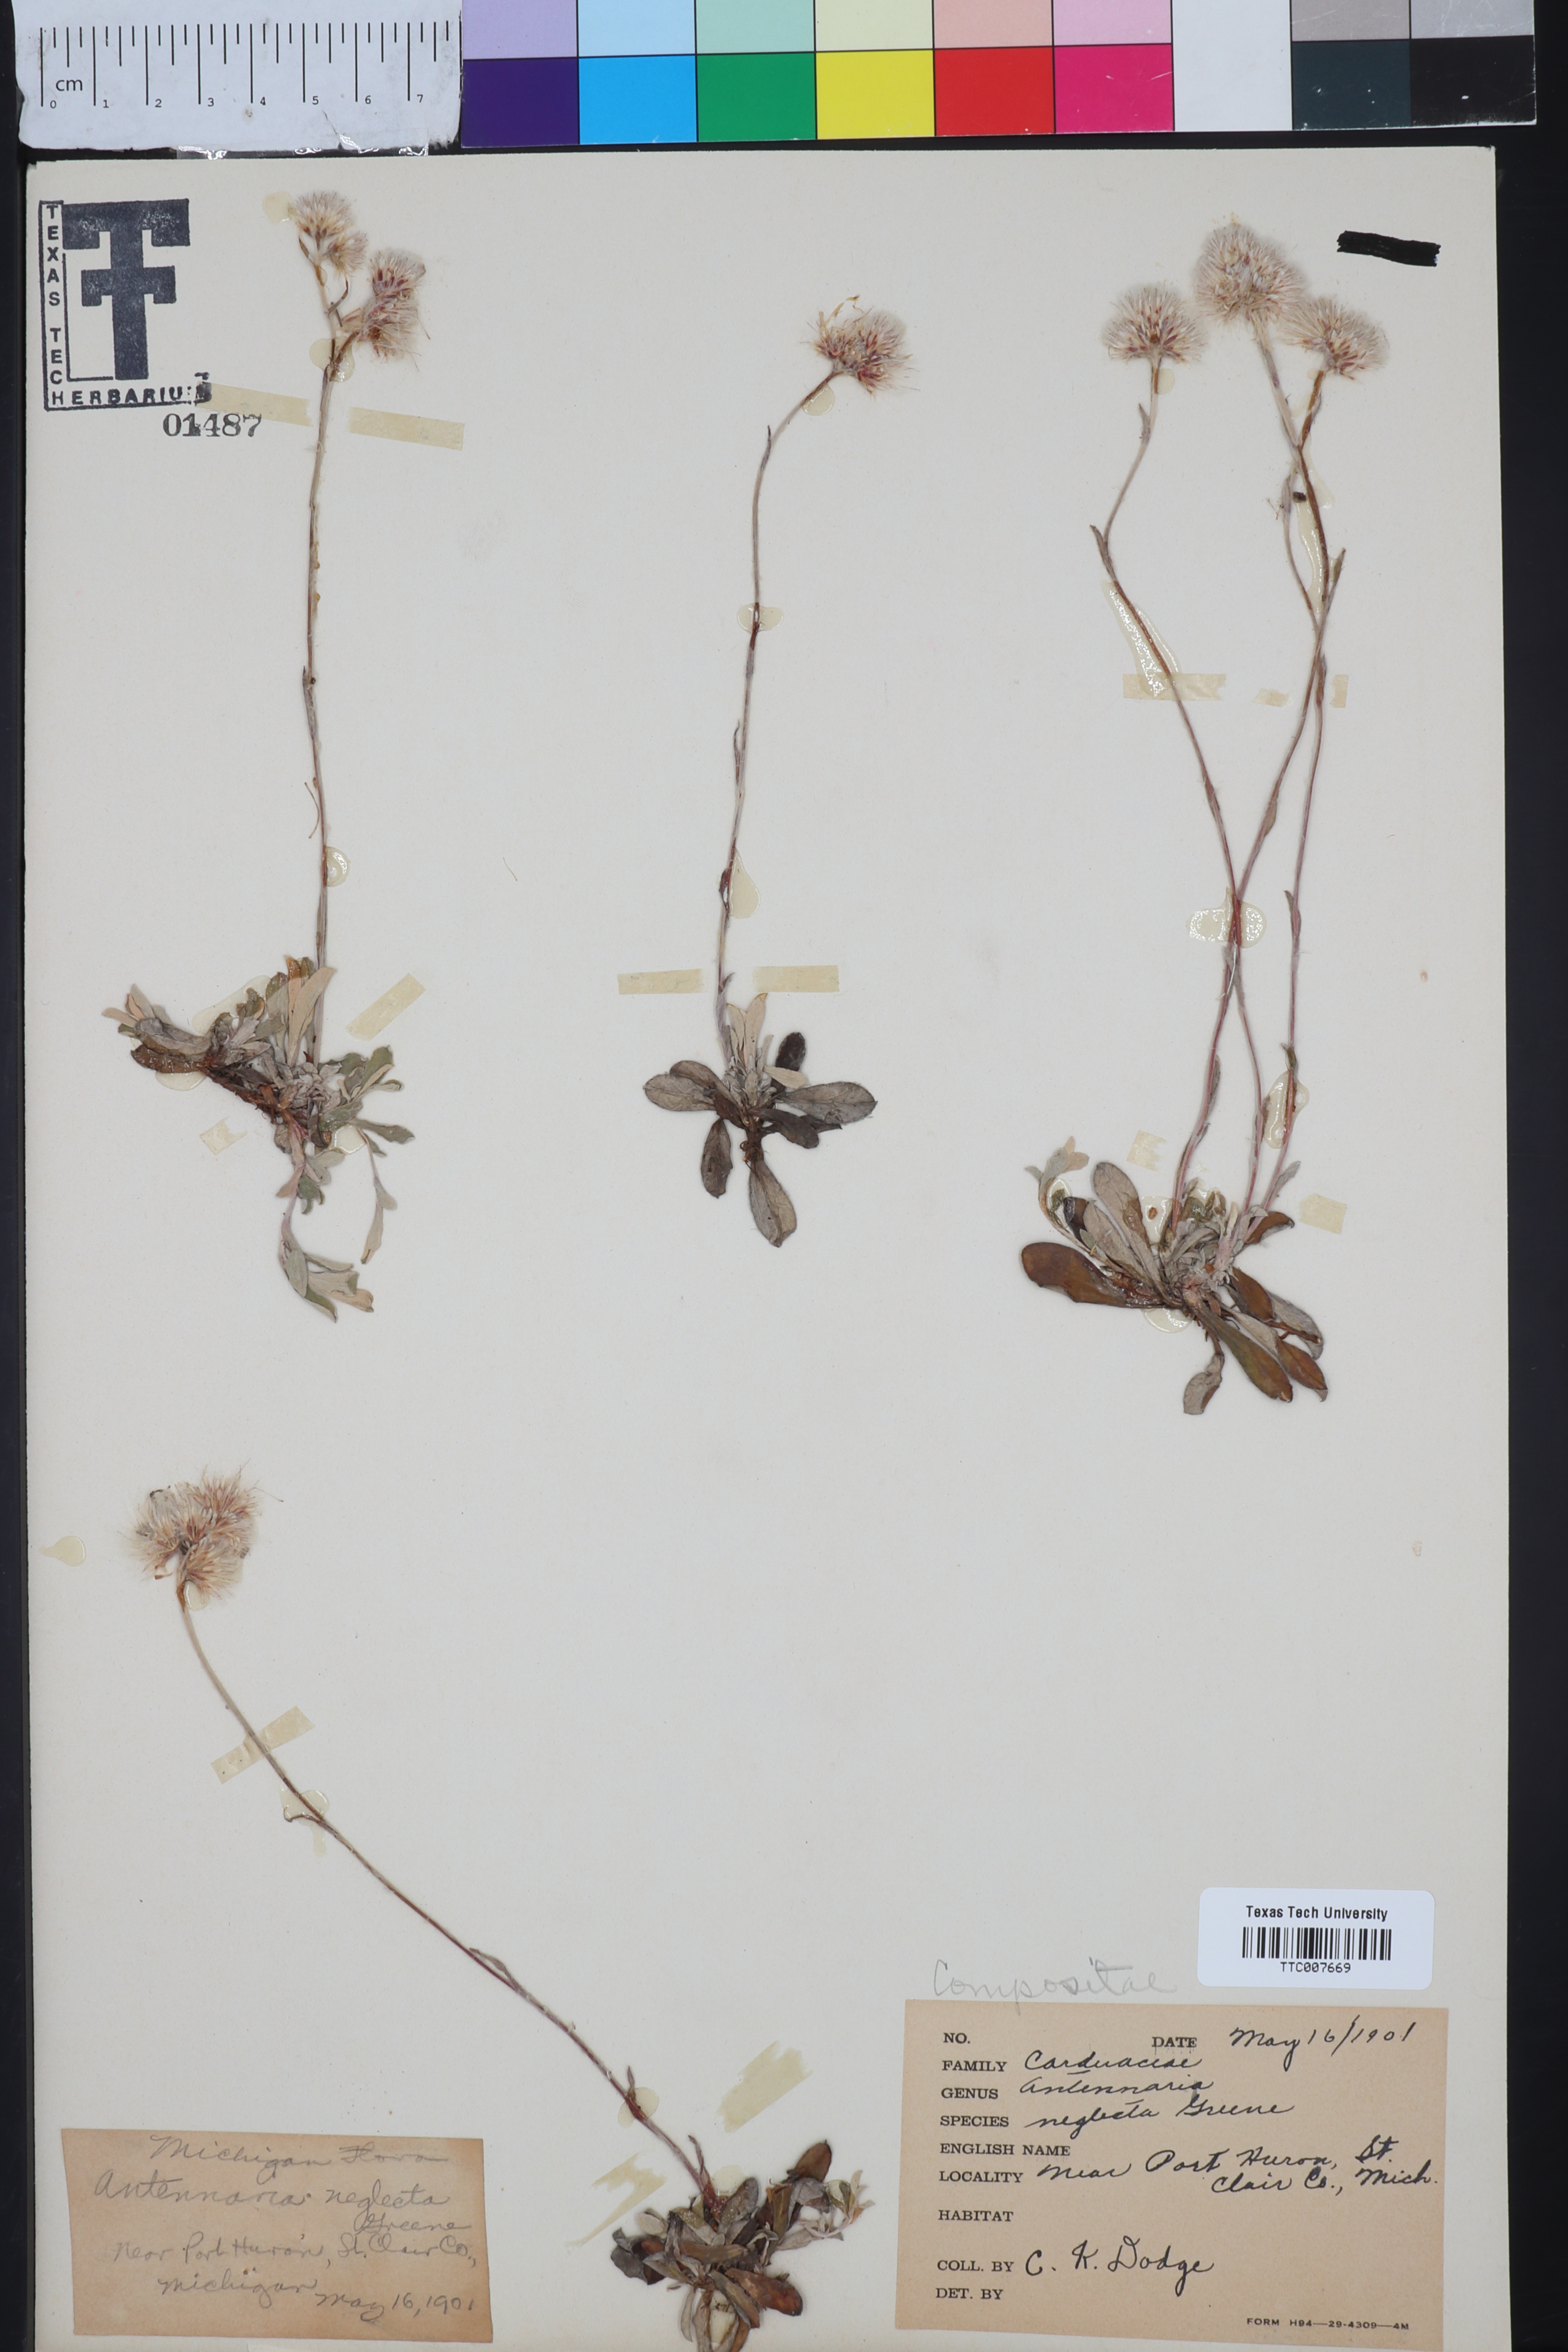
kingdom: Plantae
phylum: Tracheophyta
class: Magnoliopsida
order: Asterales
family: Asteraceae
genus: Antennaria
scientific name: Antennaria neglecta
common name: Field pussytoes
